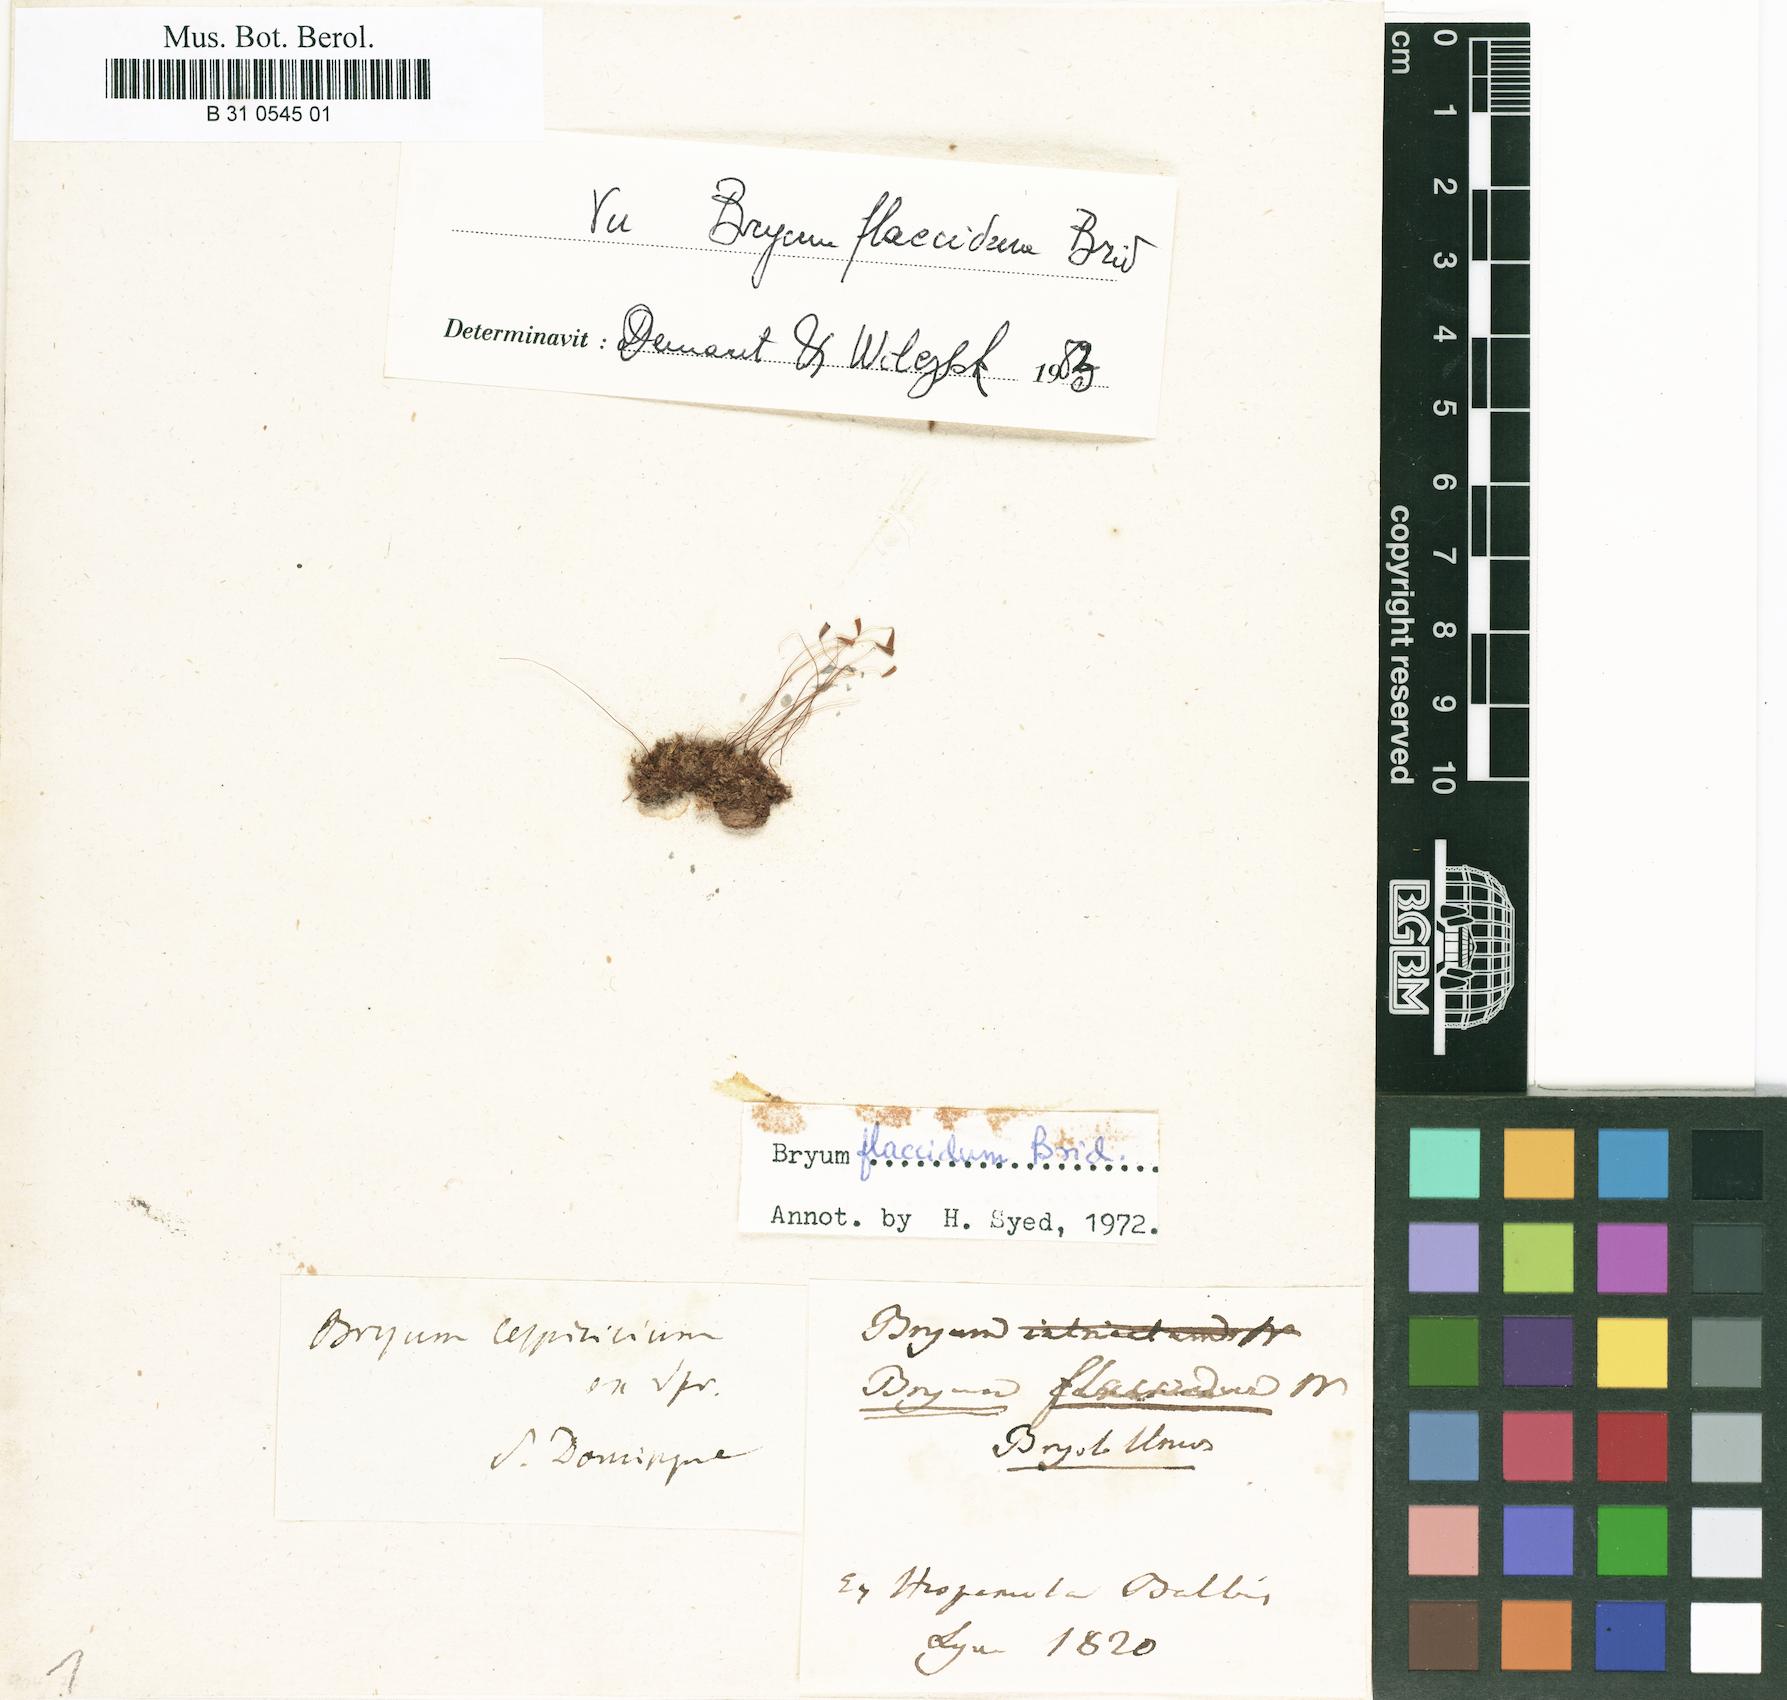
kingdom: Plantae
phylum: Bryophyta
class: Bryopsida
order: Bryales
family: Bryaceae
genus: Rosulabryum
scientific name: Rosulabryum flaccidum
